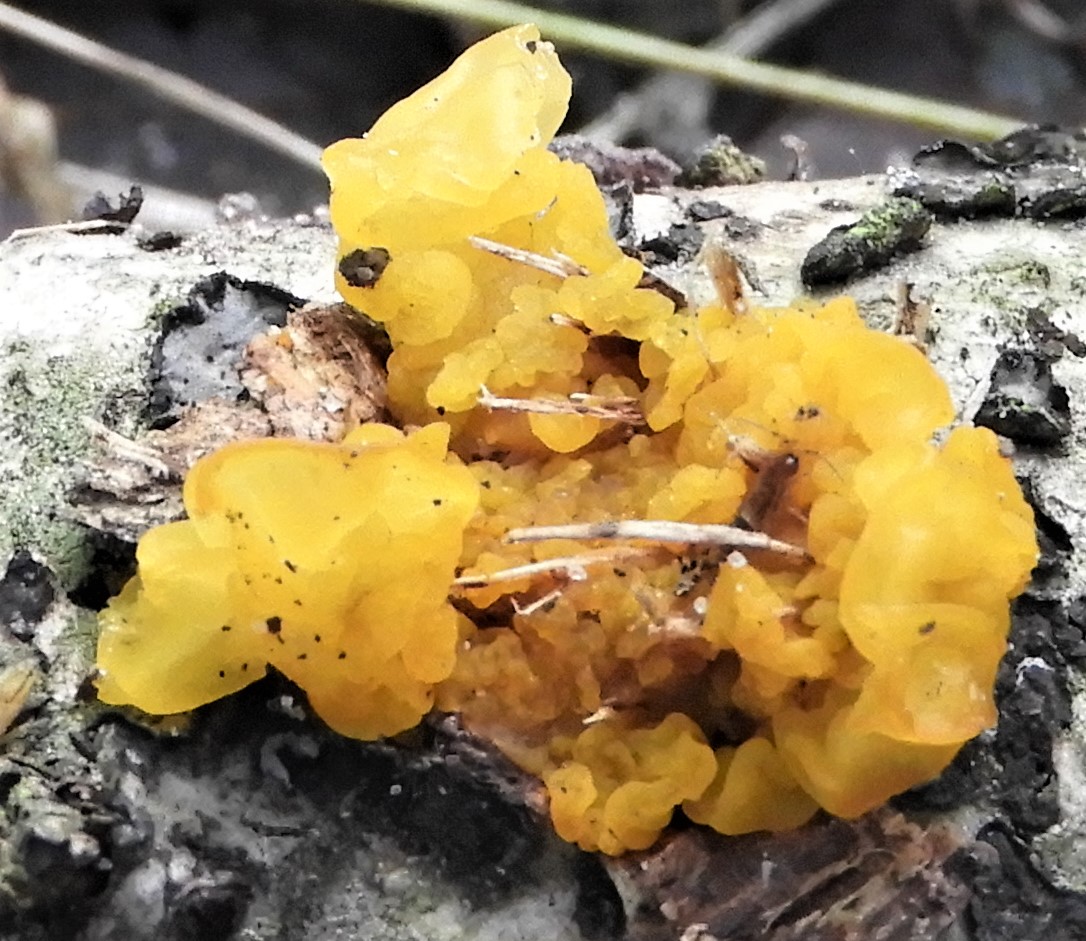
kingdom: Fungi
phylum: Basidiomycota
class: Tremellomycetes
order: Tremellales
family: Tremellaceae
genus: Tremella
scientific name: Tremella mesenterica
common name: gul bævresvamp
